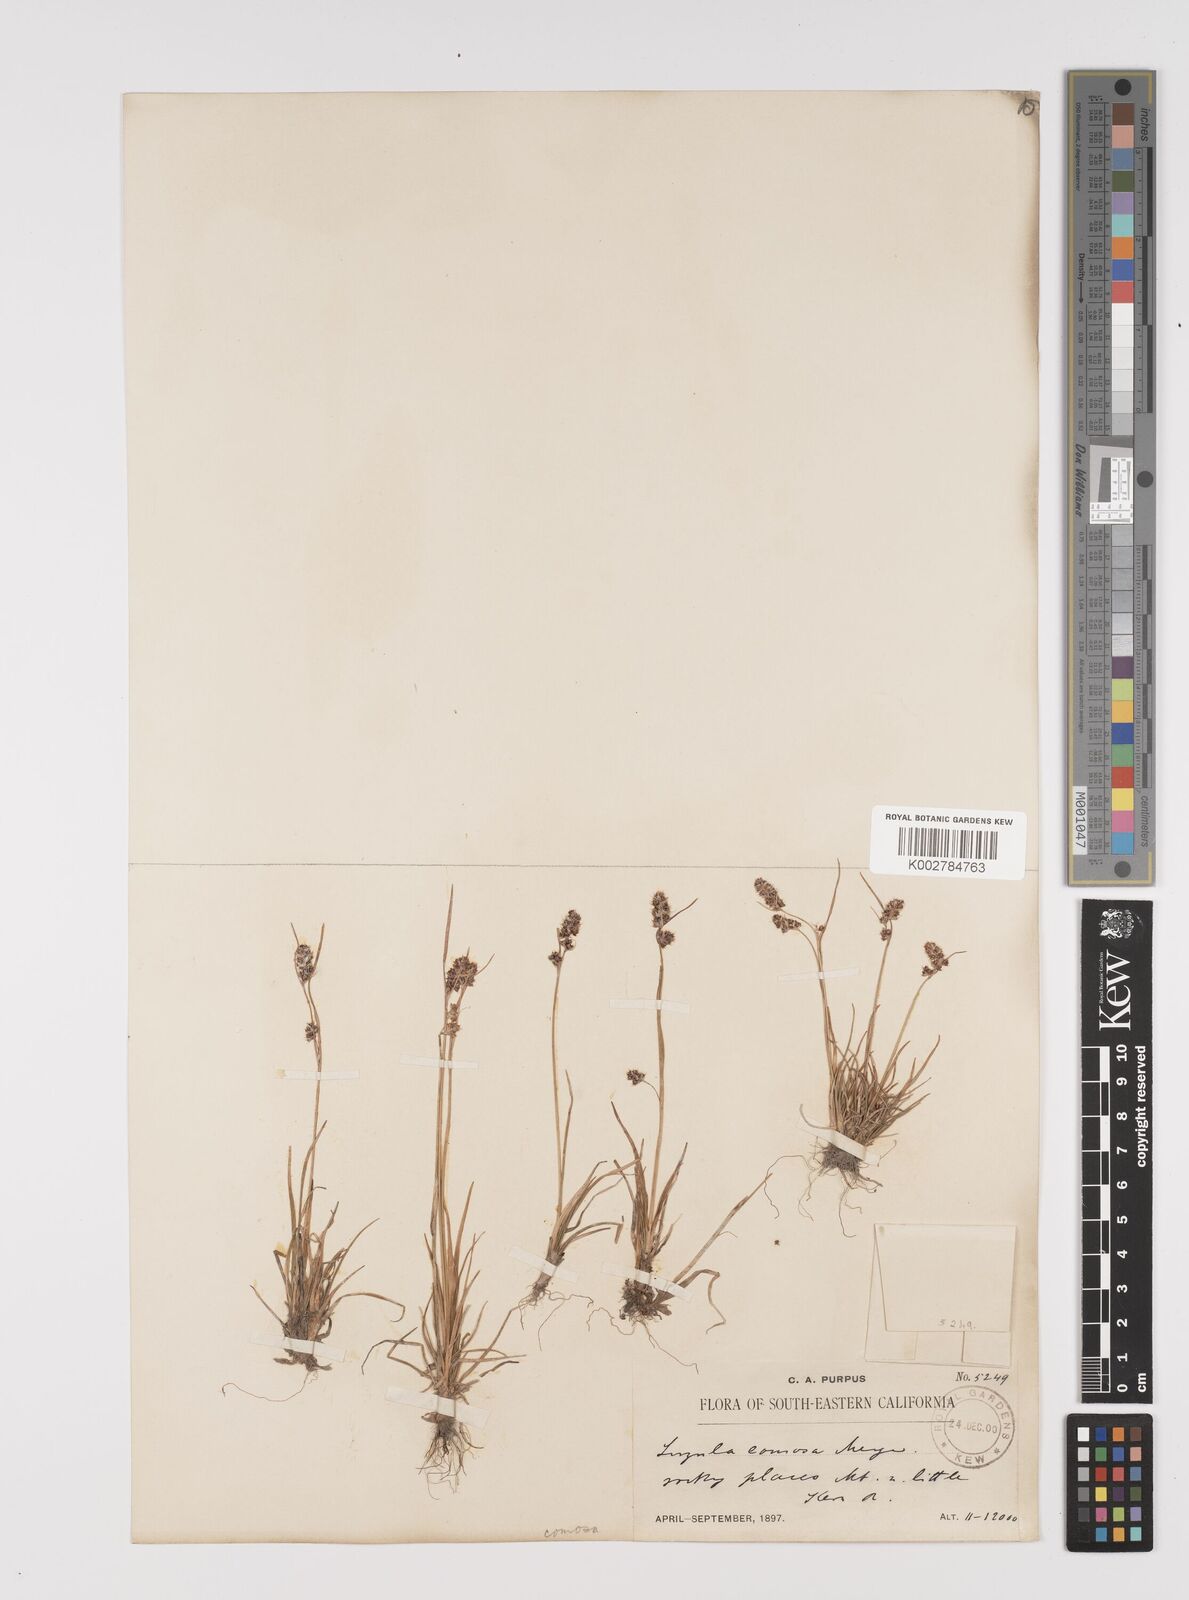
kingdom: Plantae
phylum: Tracheophyta
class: Liliopsida
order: Poales
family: Juncaceae
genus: Luzula
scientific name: Luzula comosa
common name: Pacific woodrush
